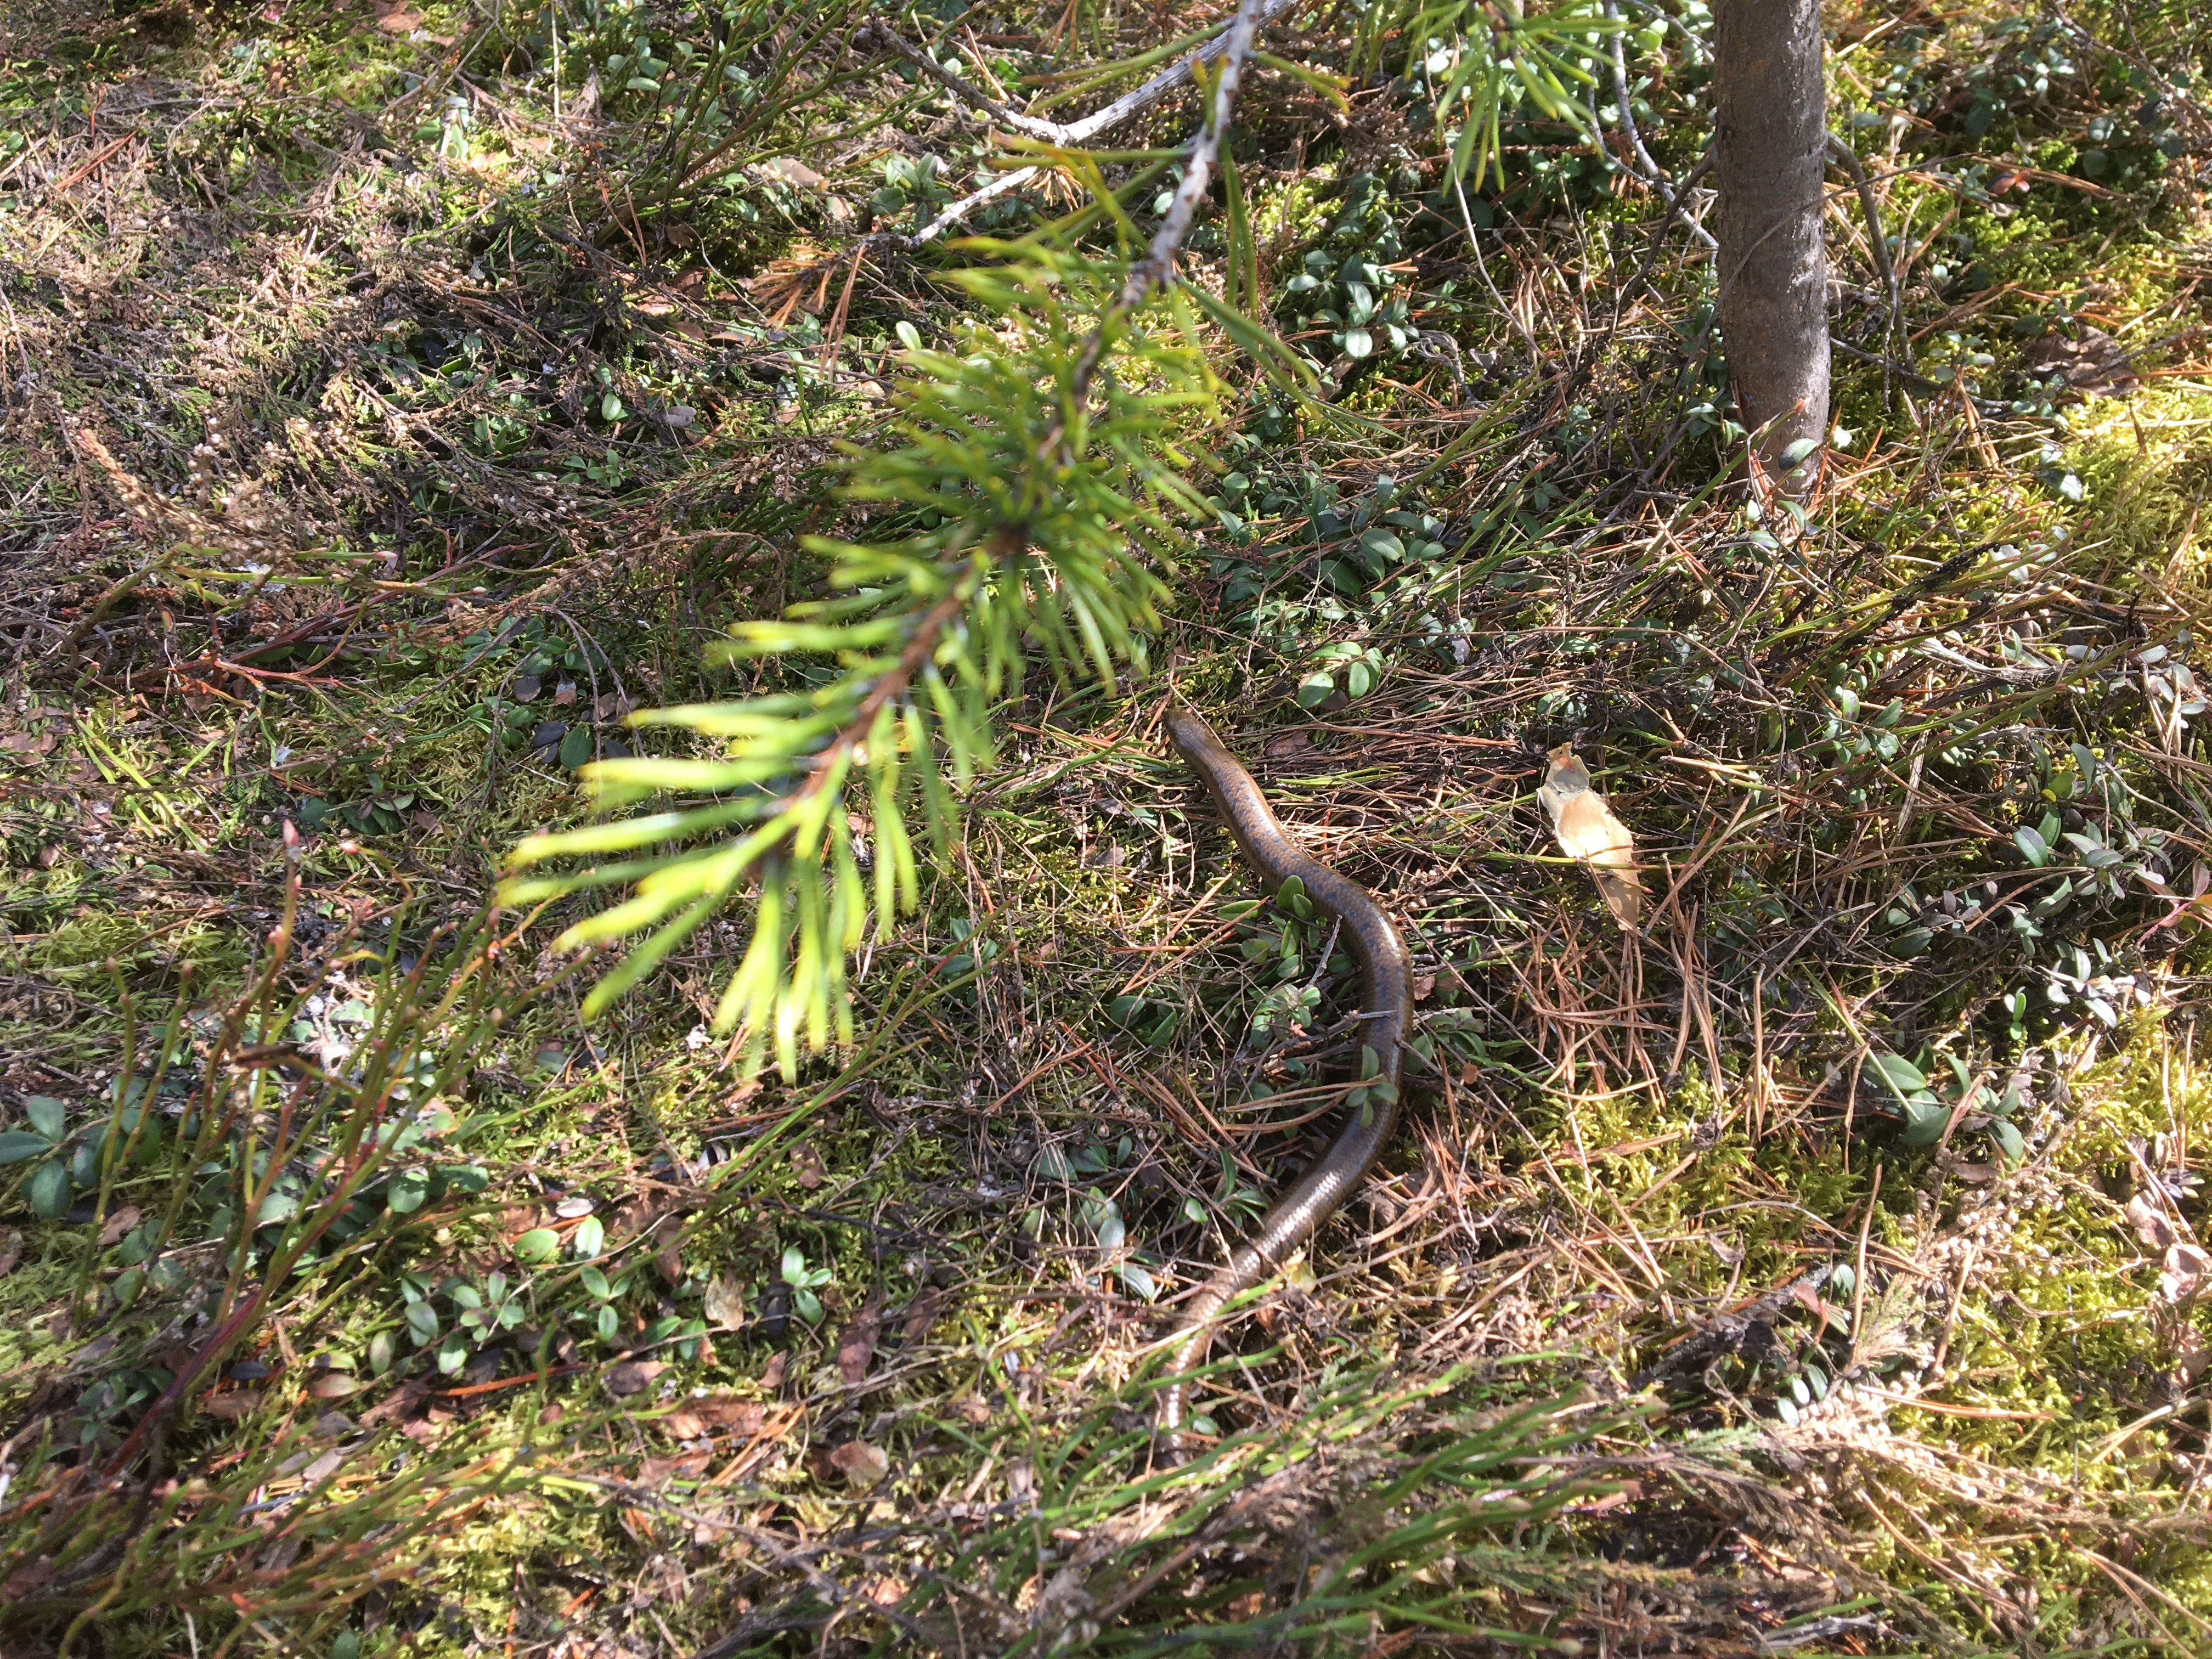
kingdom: Animalia
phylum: Chordata
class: Squamata
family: Anguidae
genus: Anguis
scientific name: Anguis colchica
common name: Slow worm
